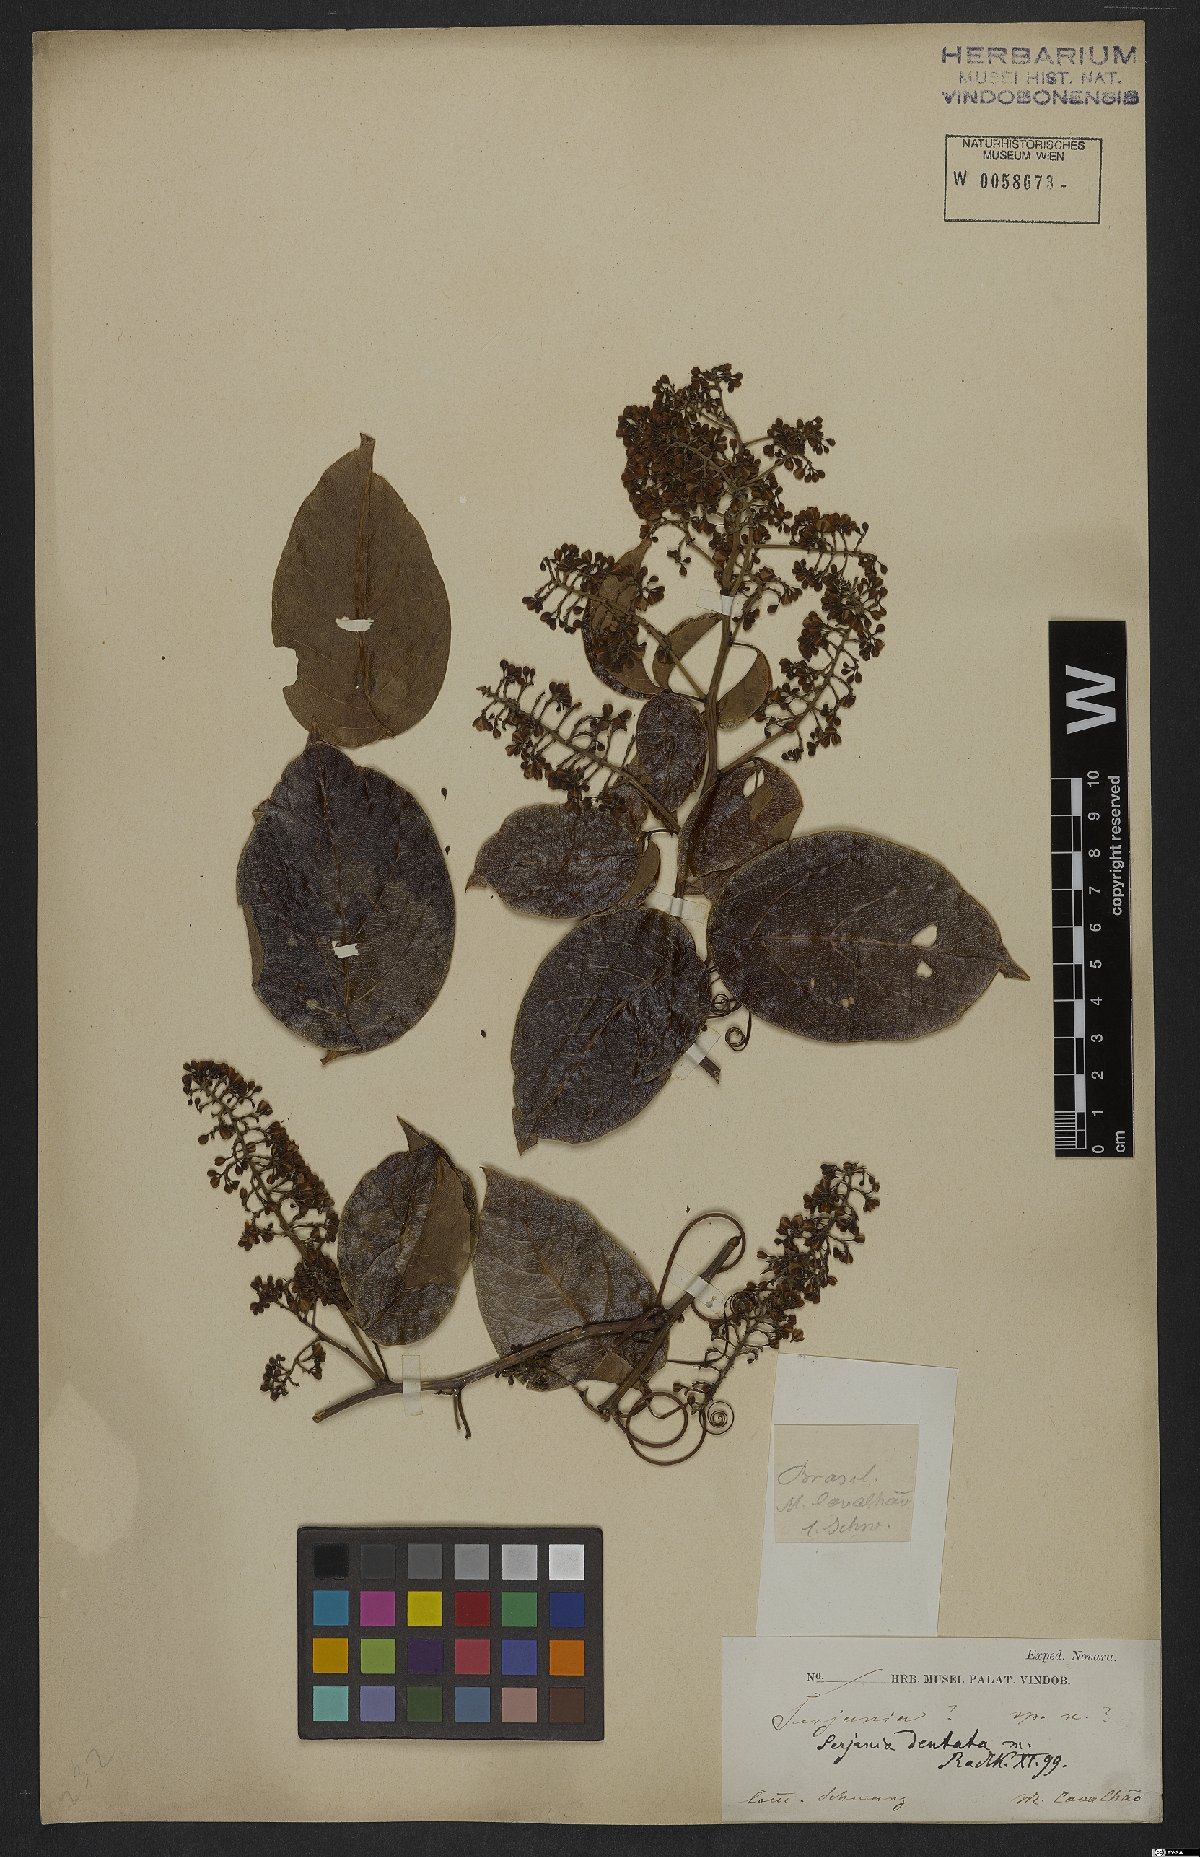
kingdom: Plantae
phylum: Tracheophyta
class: Magnoliopsida
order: Sapindales
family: Sapindaceae
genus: Serjania
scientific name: Serjania dentata
